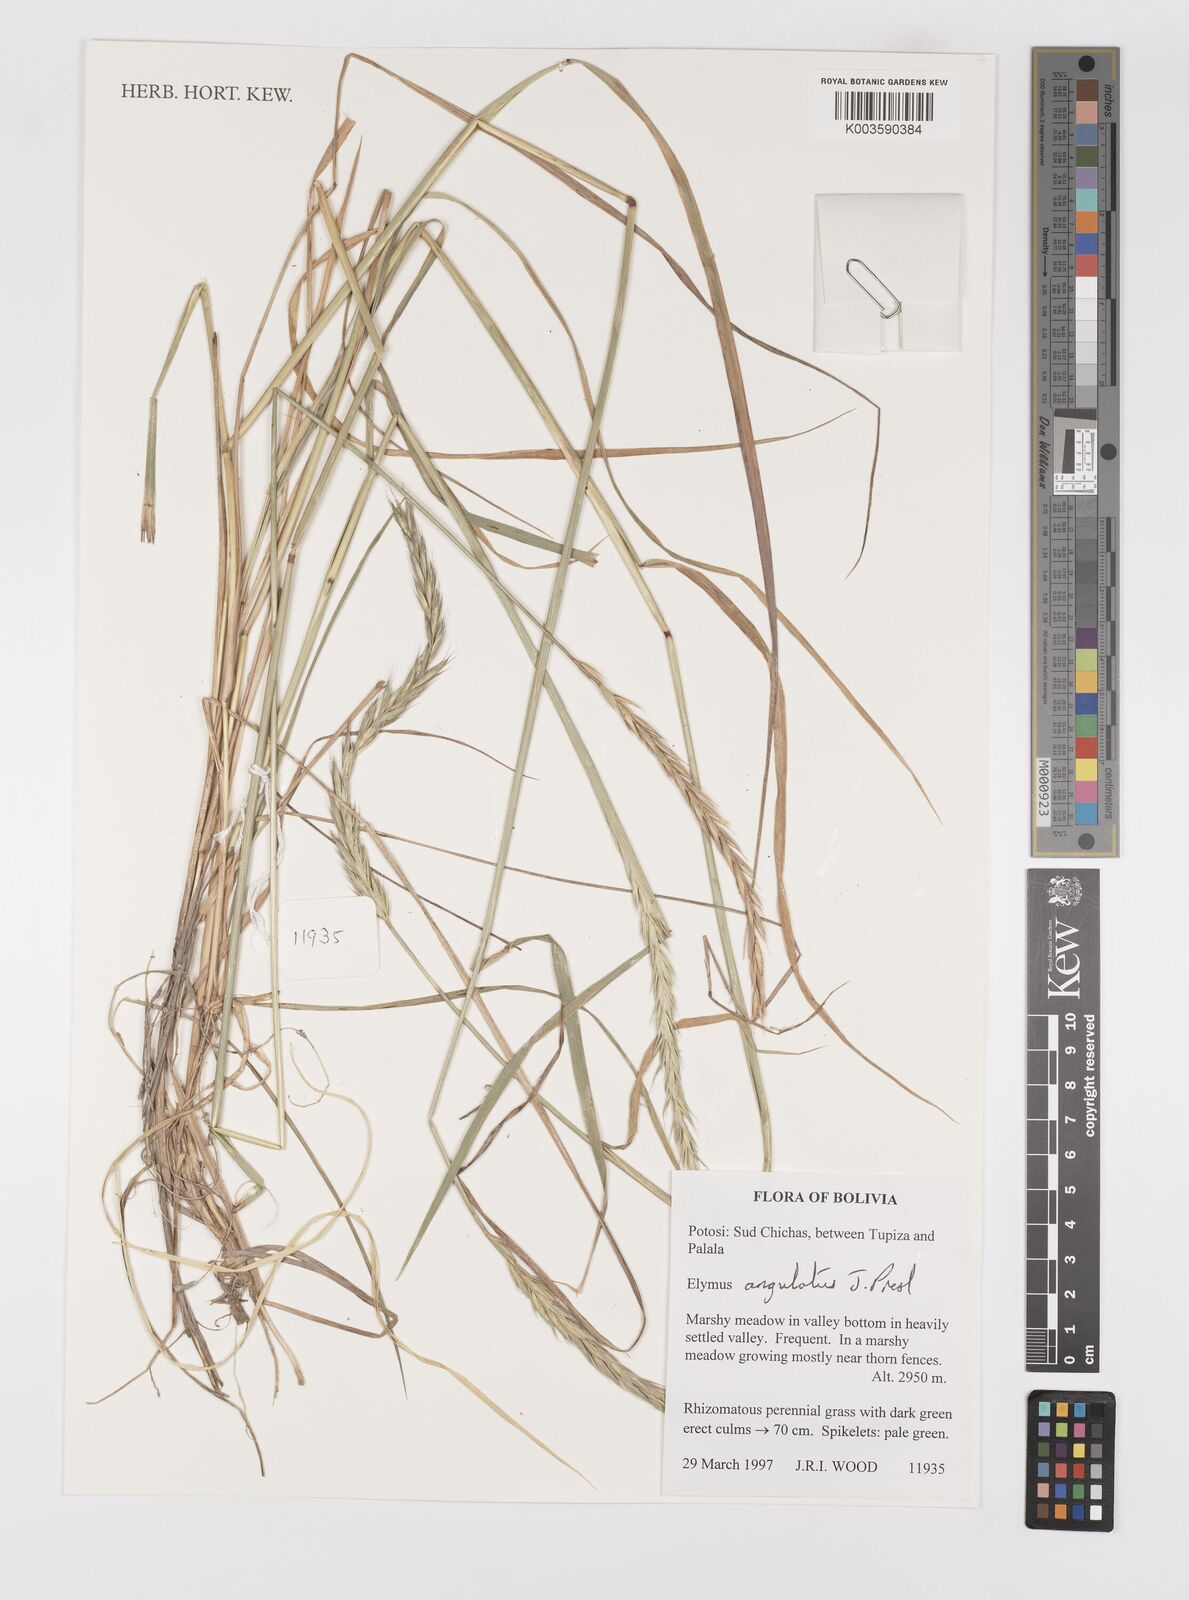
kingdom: Plantae
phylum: Tracheophyta
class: Liliopsida
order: Poales
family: Poaceae
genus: Elymus
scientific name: Elymus angulatus
